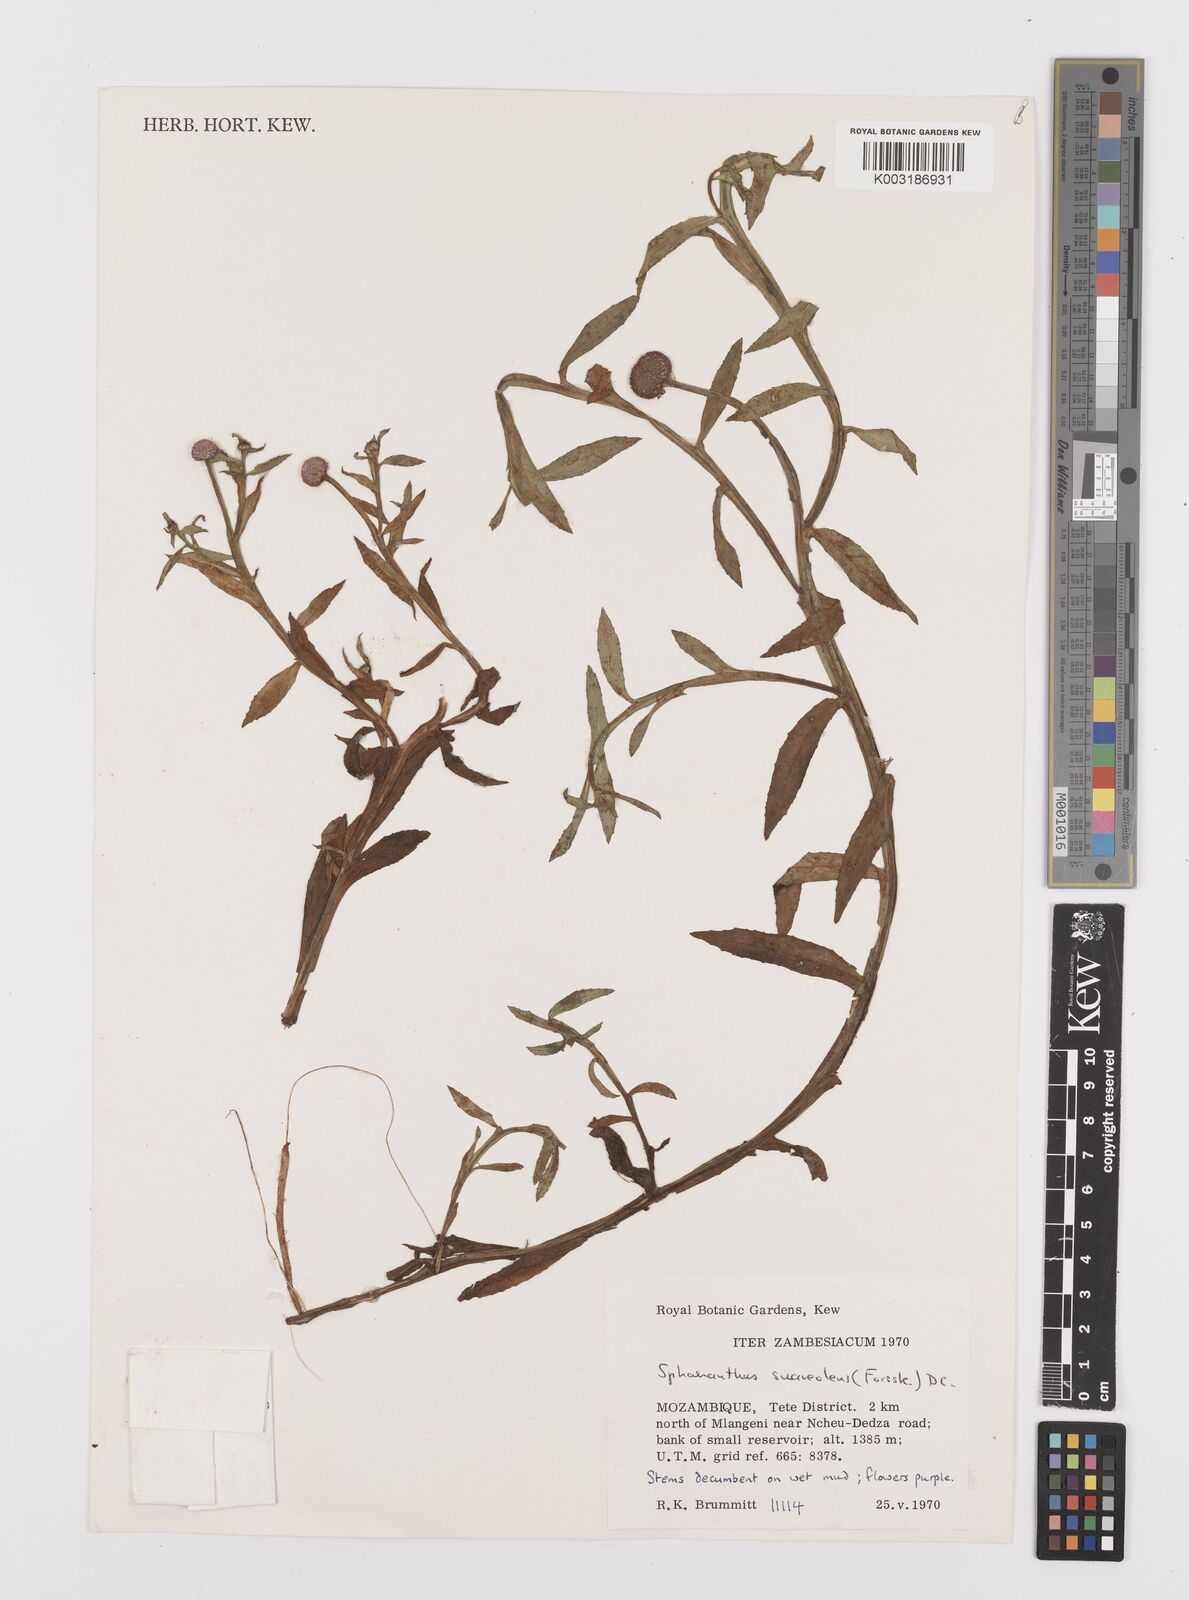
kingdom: Plantae
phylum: Tracheophyta
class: Magnoliopsida
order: Asterales
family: Asteraceae
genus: Sphaeranthus
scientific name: Sphaeranthus suaveolens
